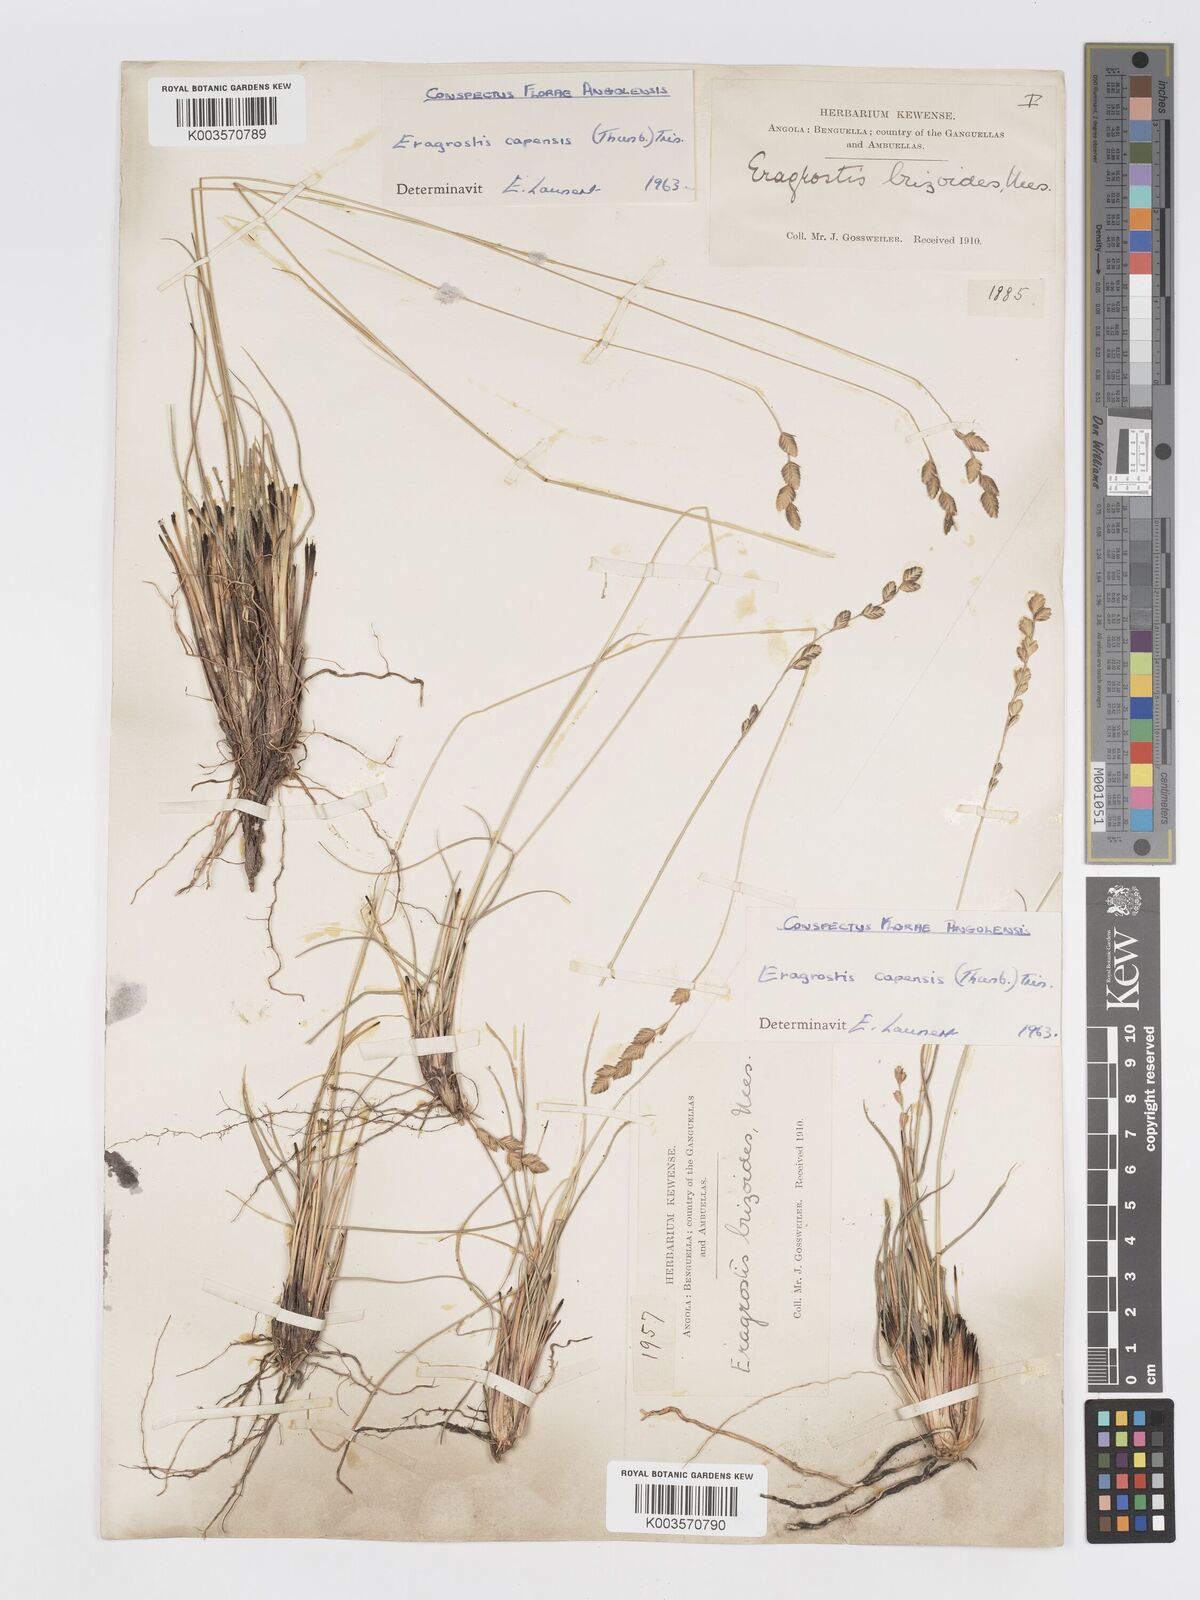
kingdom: Plantae
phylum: Tracheophyta
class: Liliopsida
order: Poales
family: Poaceae
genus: Eragrostis
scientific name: Eragrostis capensis
